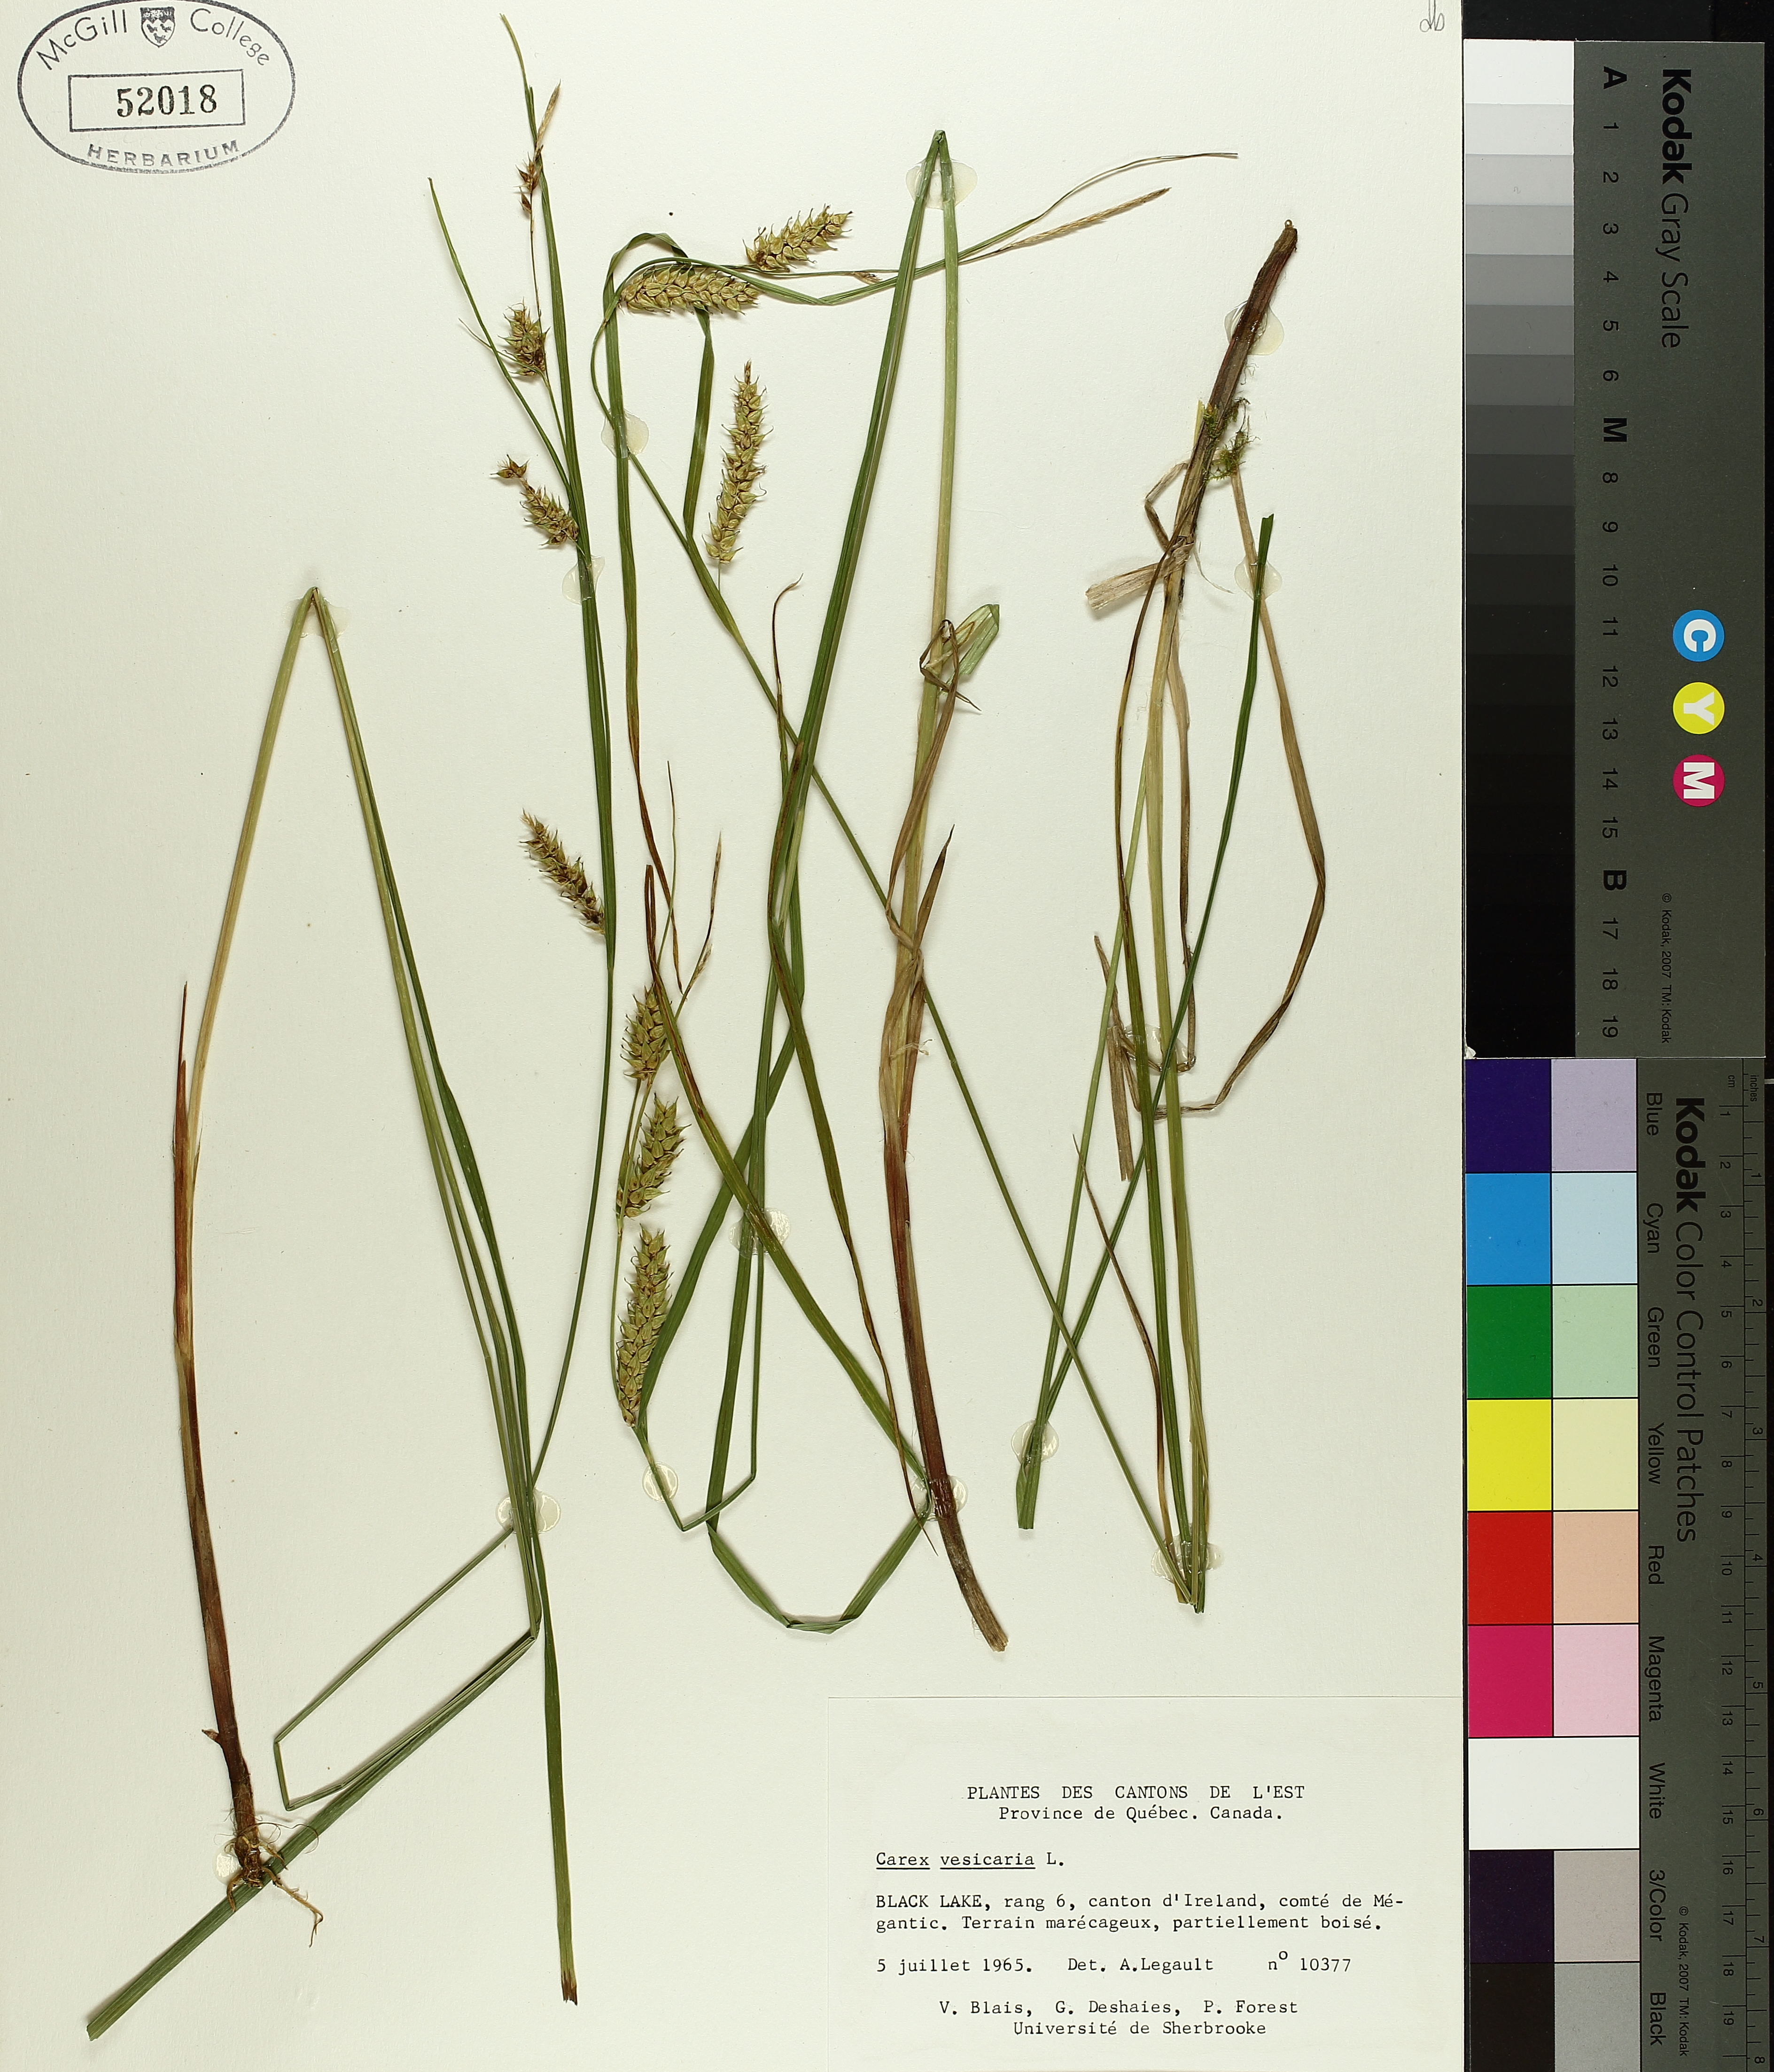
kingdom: Plantae
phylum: Tracheophyta
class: Liliopsida
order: Poales
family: Cyperaceae
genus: Carex
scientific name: Carex vesicaria
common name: Bladder-sedge
